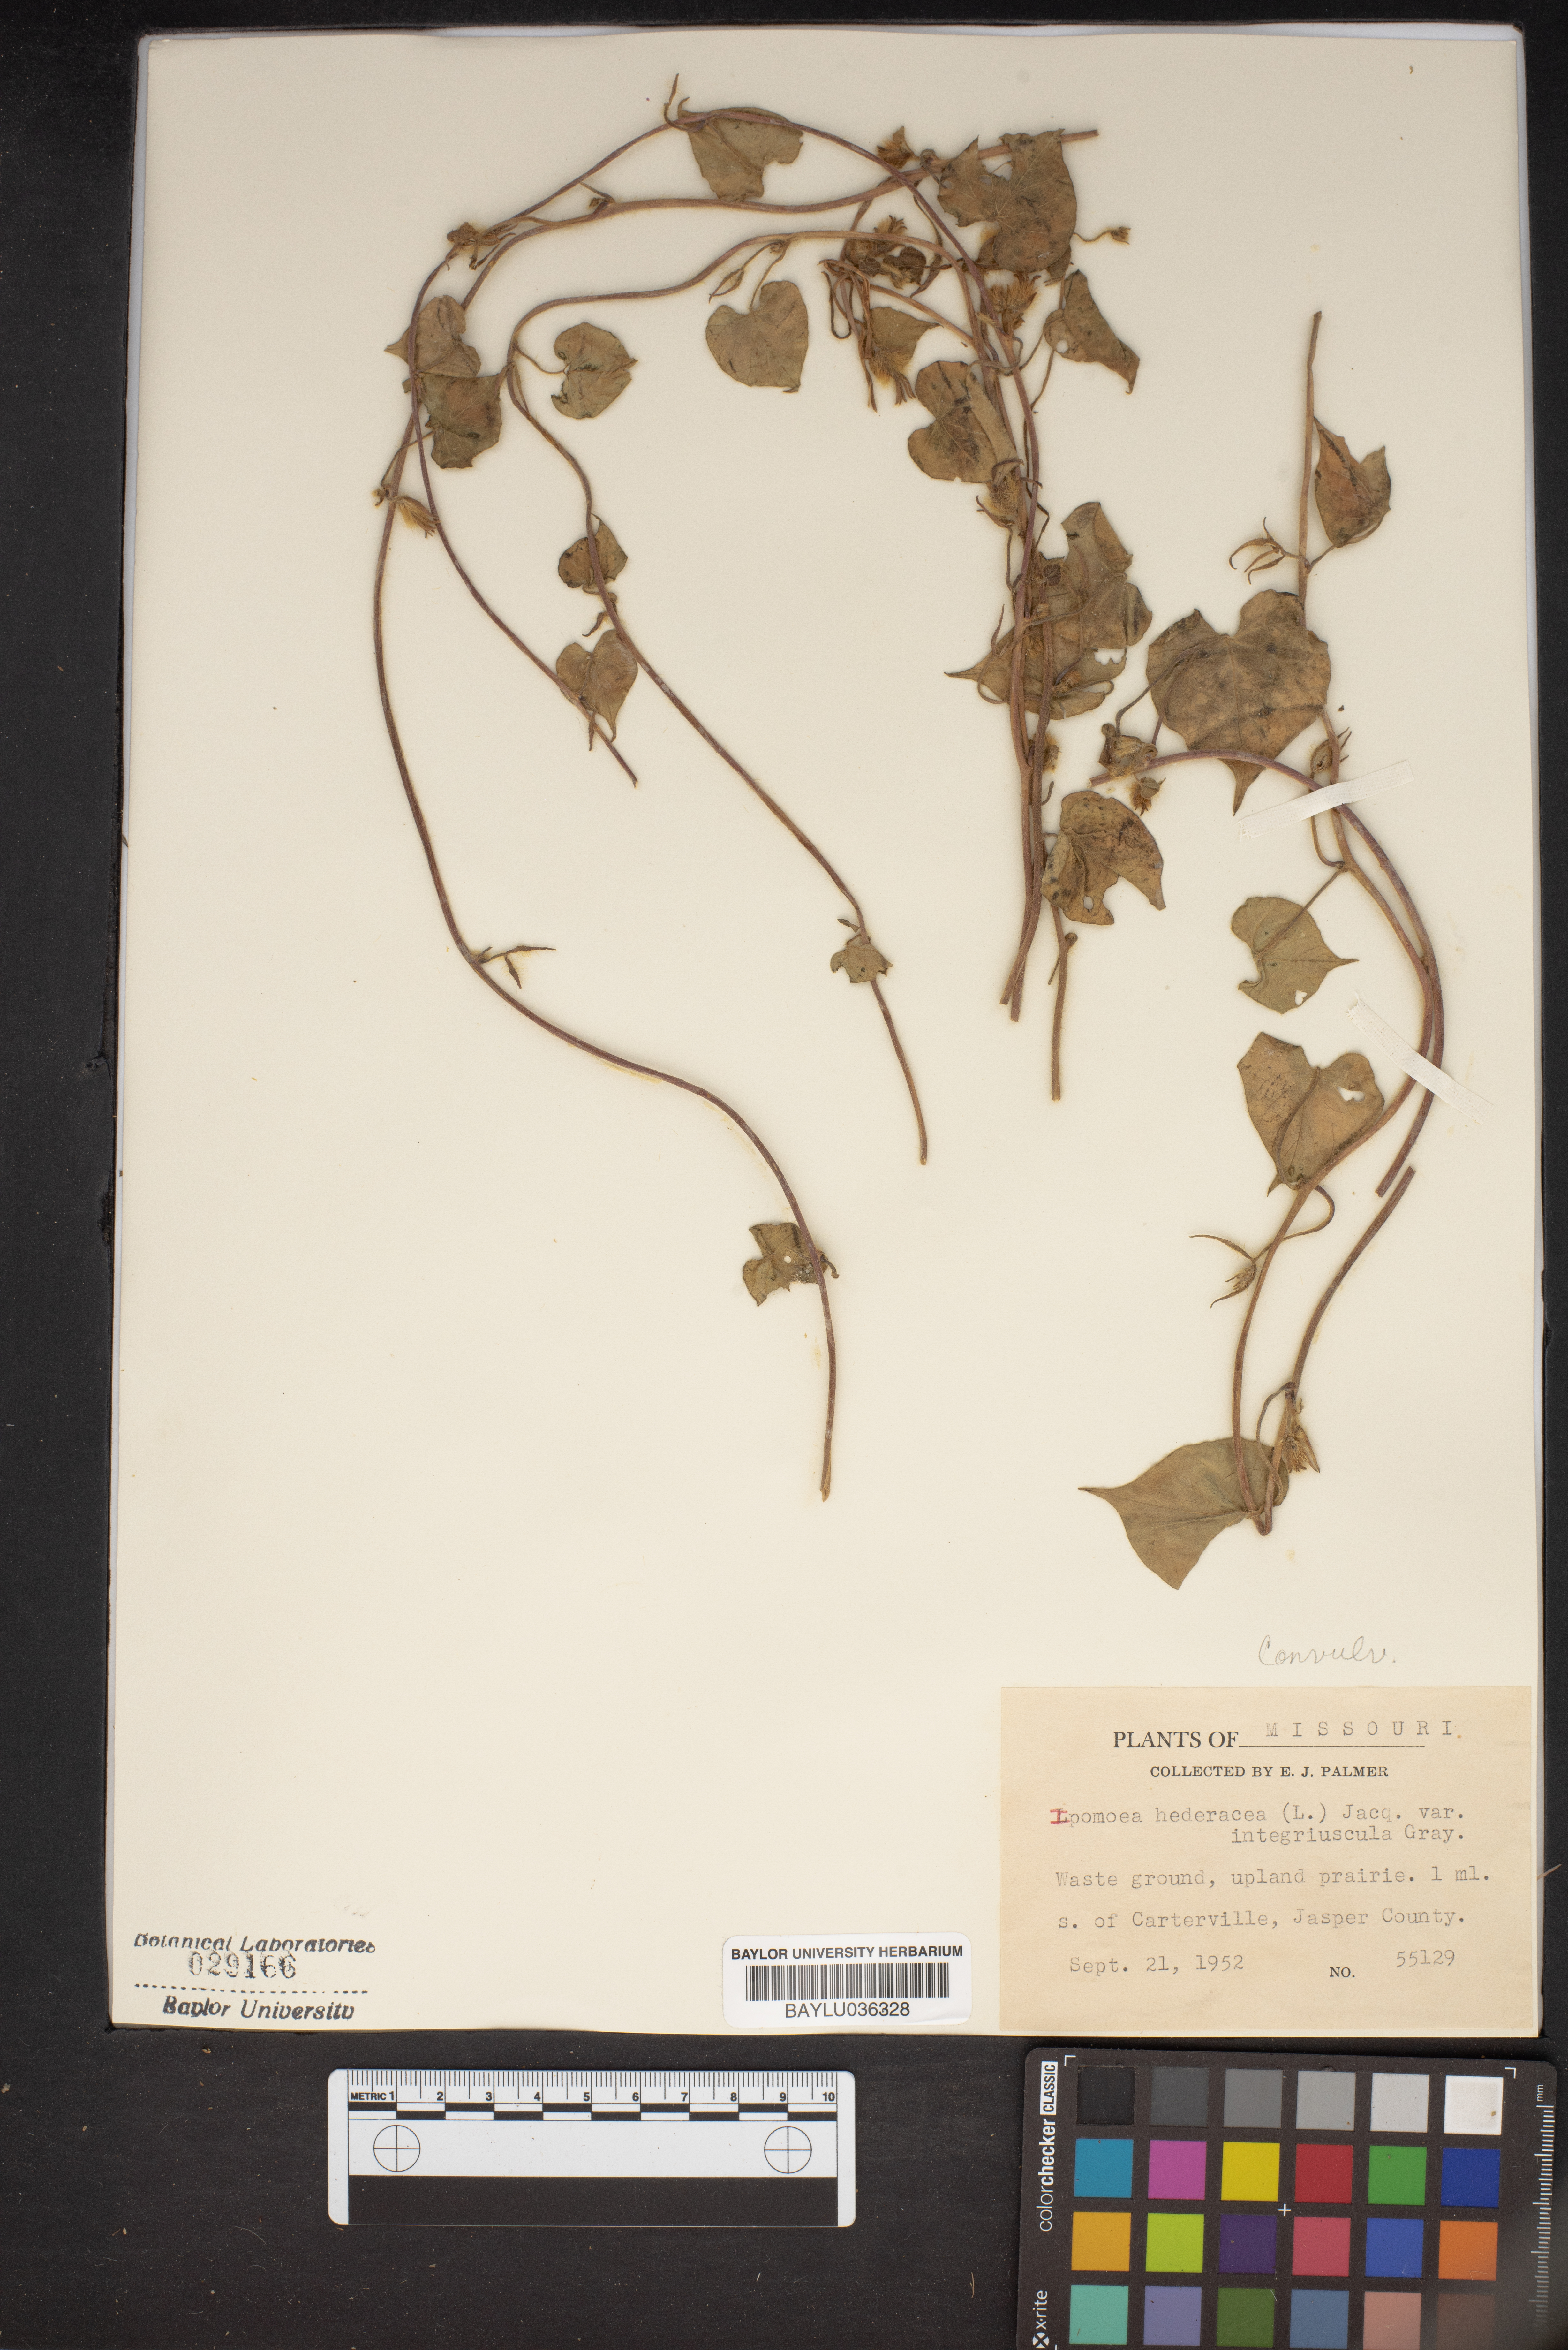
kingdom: Plantae
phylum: Tracheophyta
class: Magnoliopsida
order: Solanales
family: Convolvulaceae
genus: Ipomoea
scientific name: Ipomoea hederacea
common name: Ivy-leaved morning-glory
